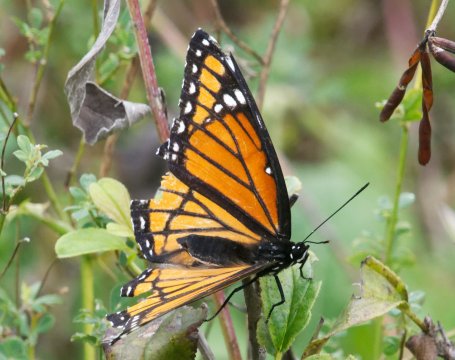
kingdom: Animalia
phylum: Arthropoda
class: Insecta
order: Lepidoptera
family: Nymphalidae
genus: Limenitis
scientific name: Limenitis archippus
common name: Viceroy
